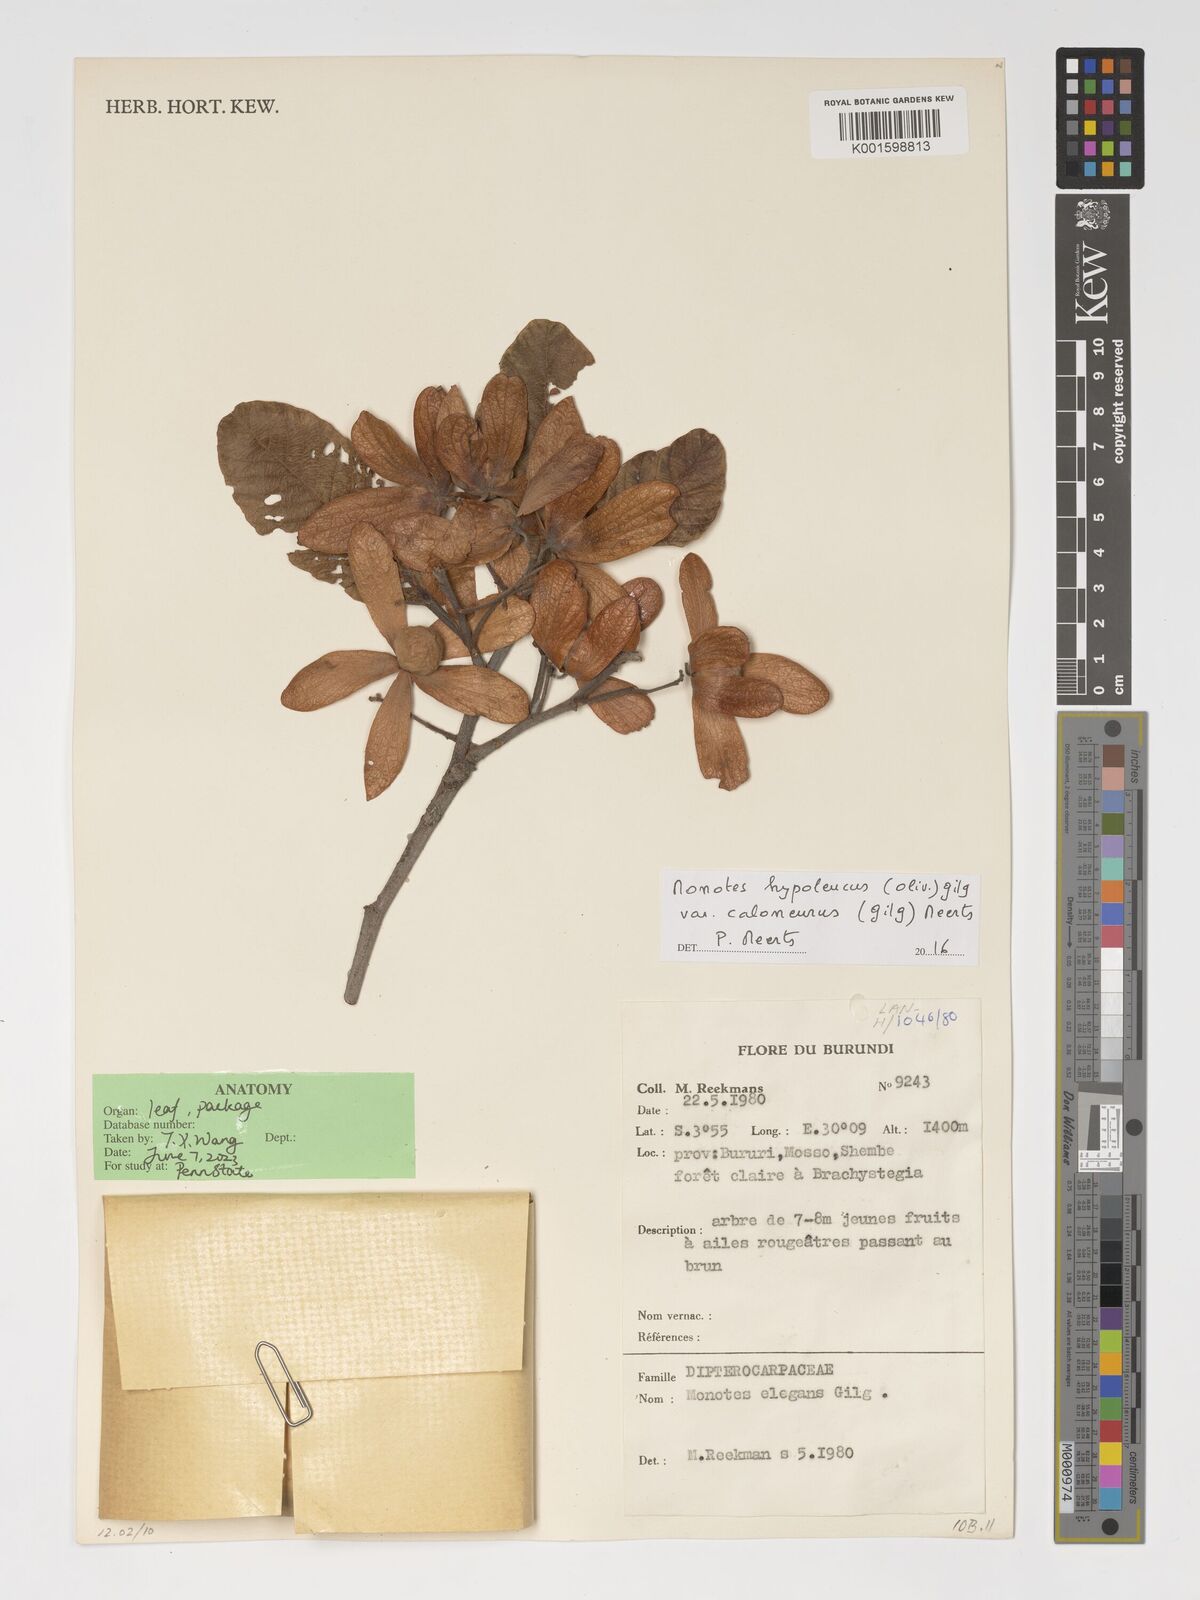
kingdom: Plantae
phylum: Tracheophyta
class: Magnoliopsida
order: Malvales
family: Dipterocarpaceae
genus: Monotes
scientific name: Monotes hypoleucus
